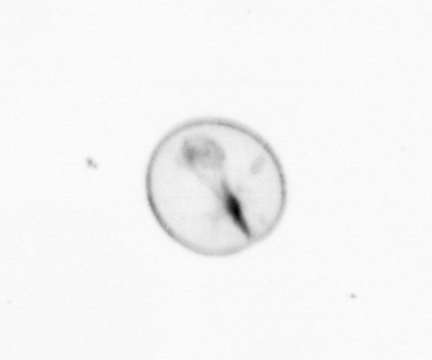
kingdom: Chromista
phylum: Myzozoa
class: Dinophyceae
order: Noctilucales
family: Noctilucaceae
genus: Noctiluca
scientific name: Noctiluca scintillans
